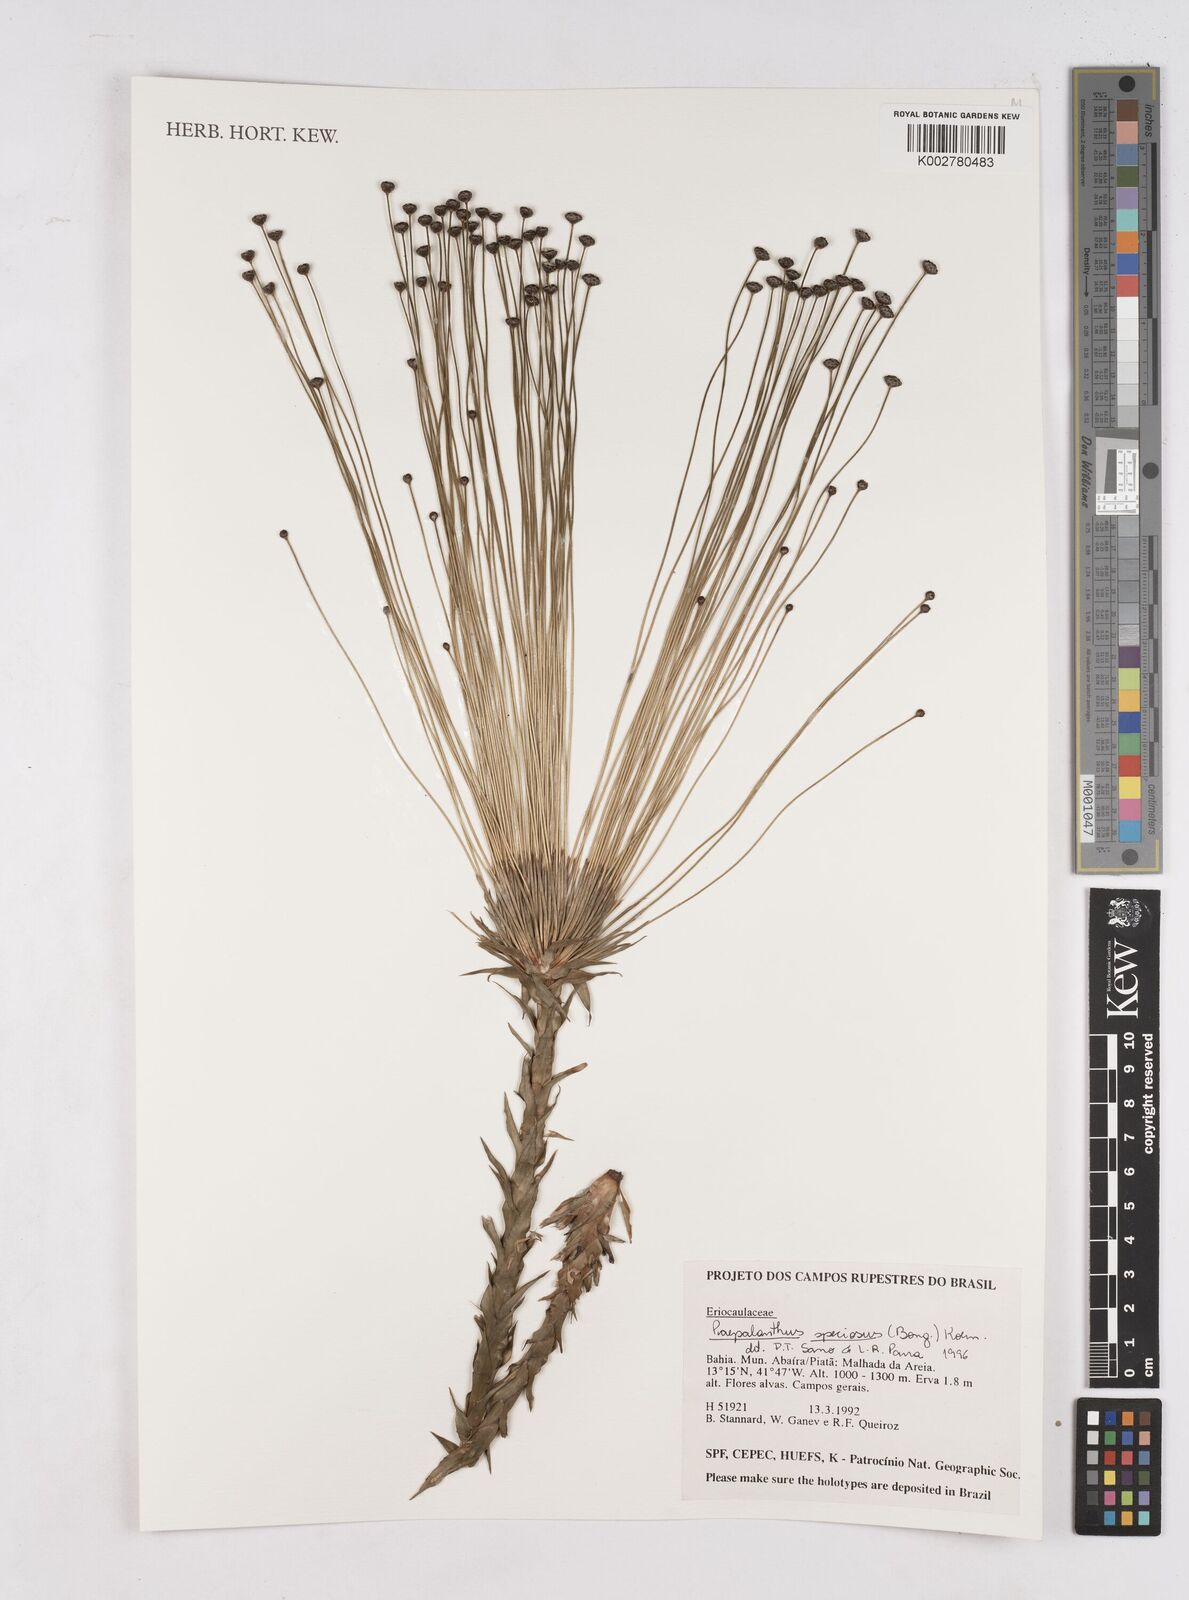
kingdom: Plantae
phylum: Tracheophyta
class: Liliopsida
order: Poales
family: Eriocaulaceae
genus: Paepalanthus
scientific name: Paepalanthus chiquitensis
